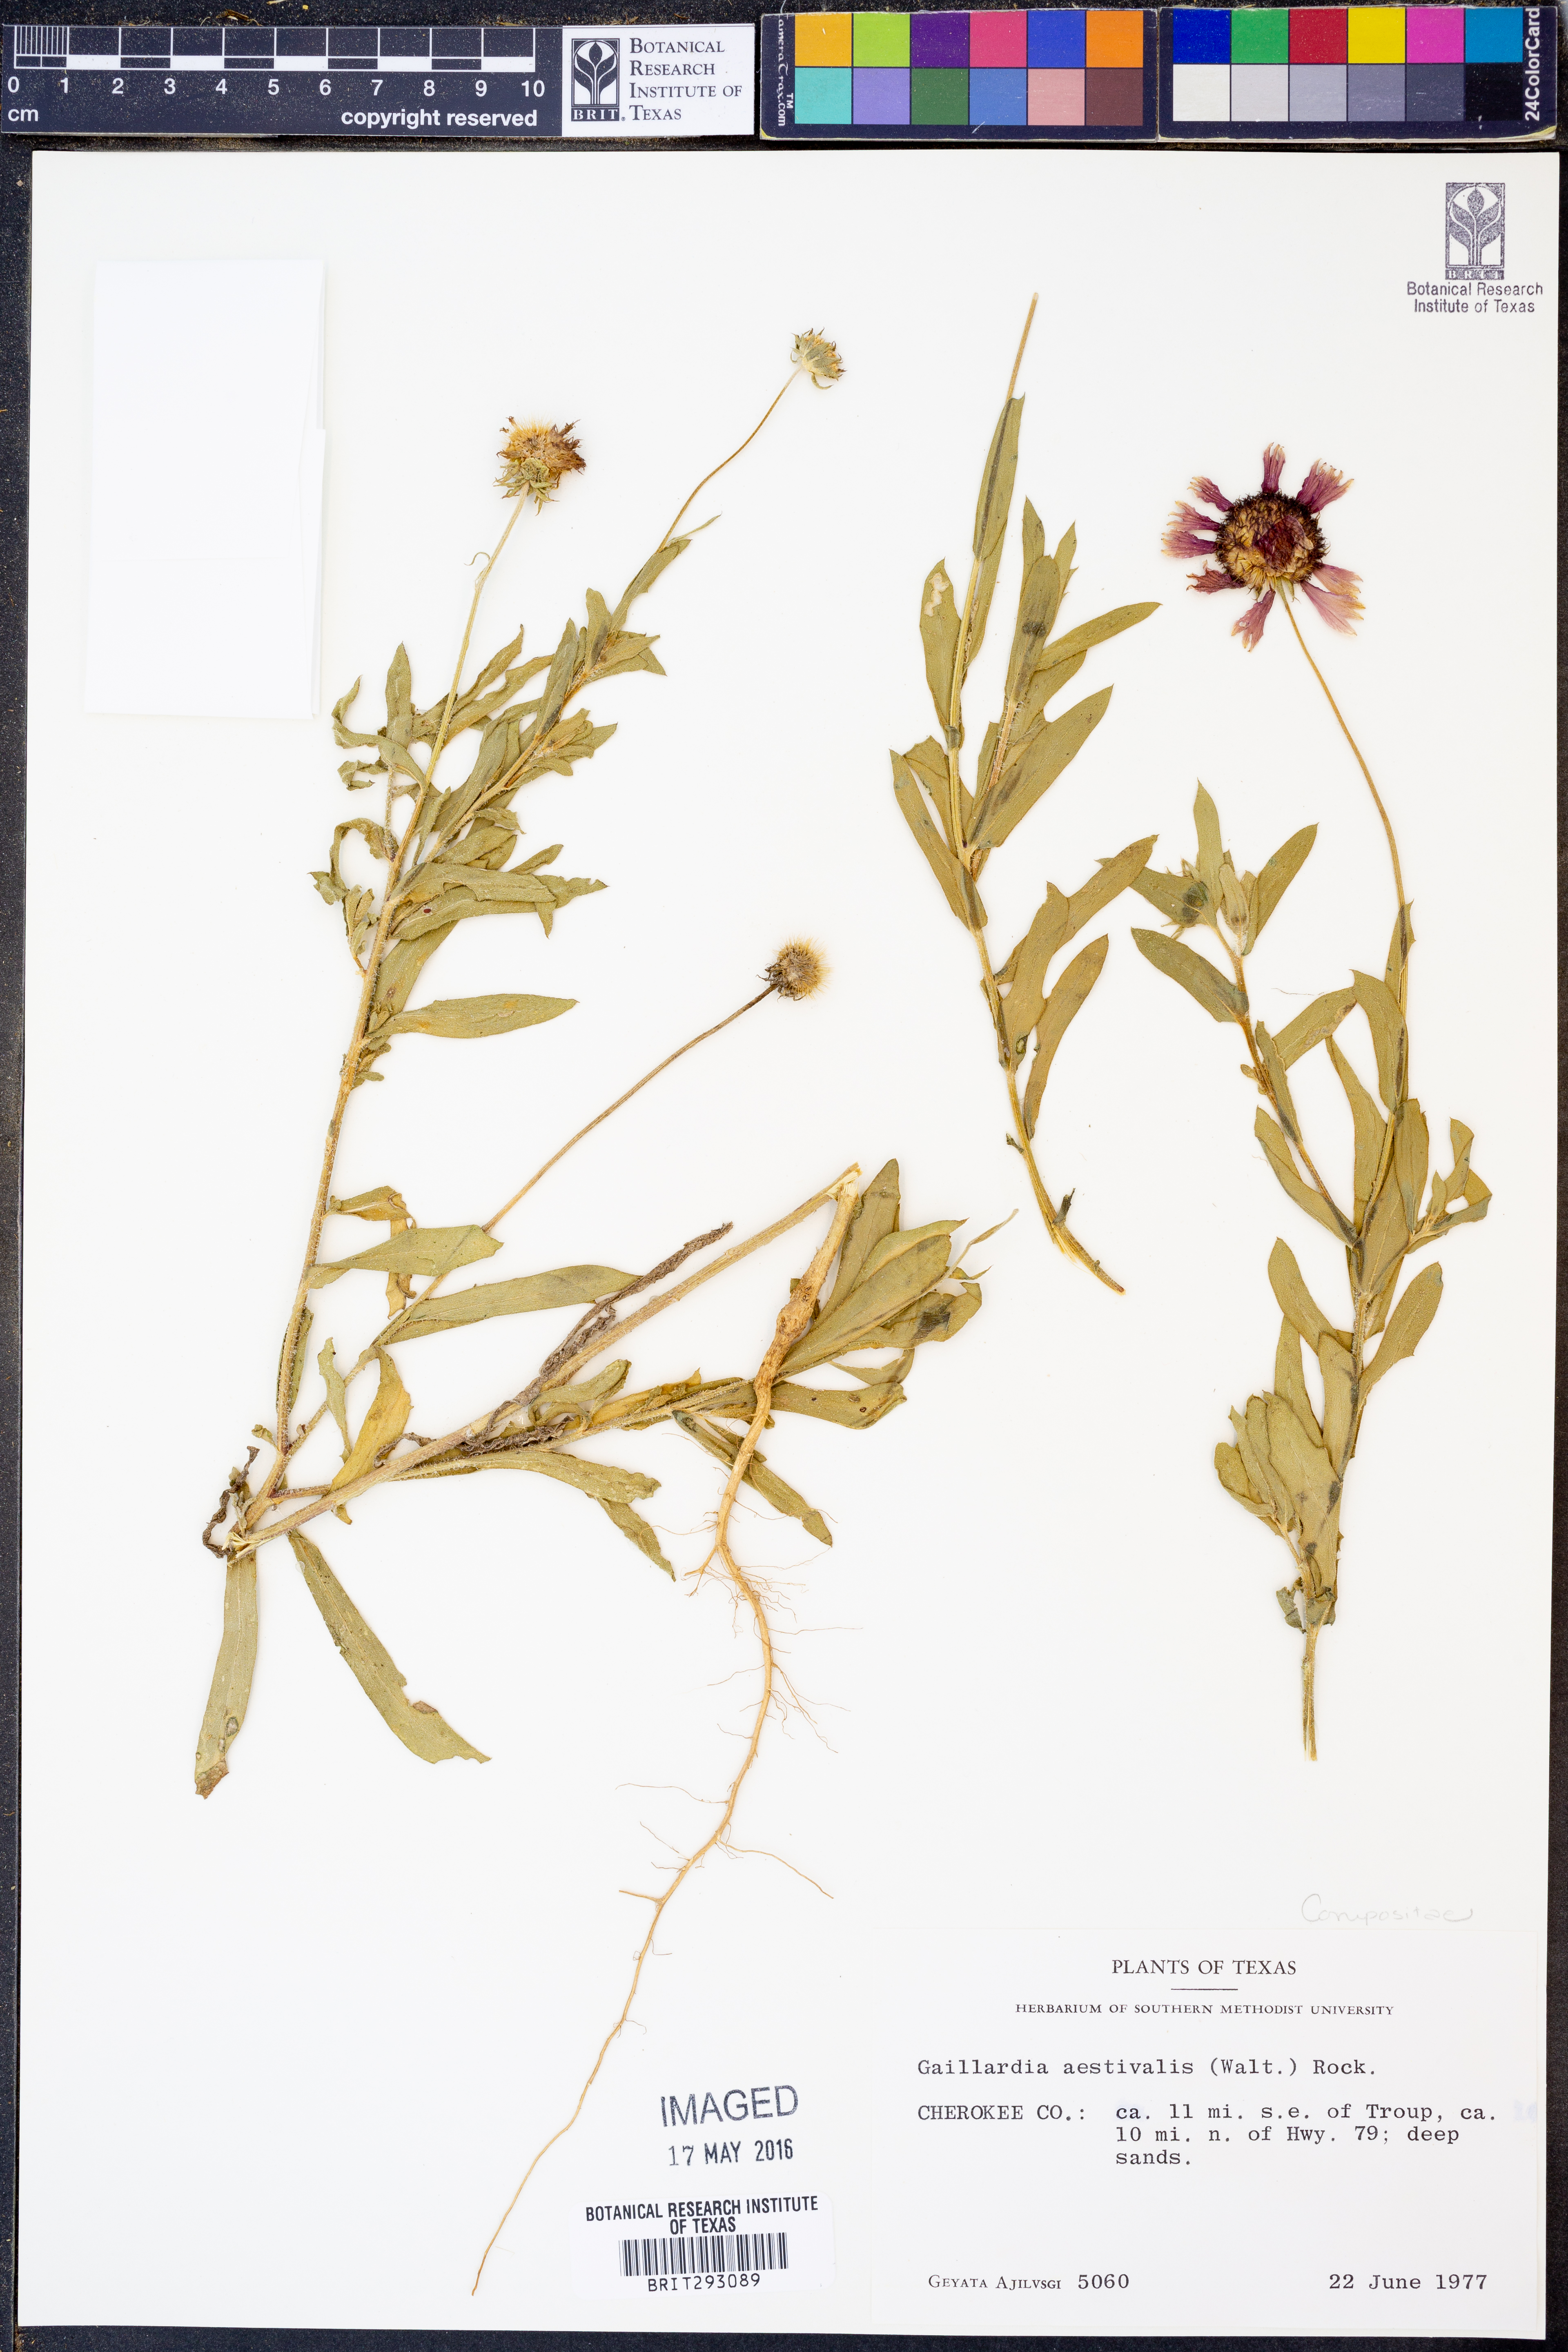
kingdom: Plantae
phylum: Tracheophyta
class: Magnoliopsida
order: Asterales
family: Asteraceae
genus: Gaillardia
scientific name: Gaillardia aestivalis
